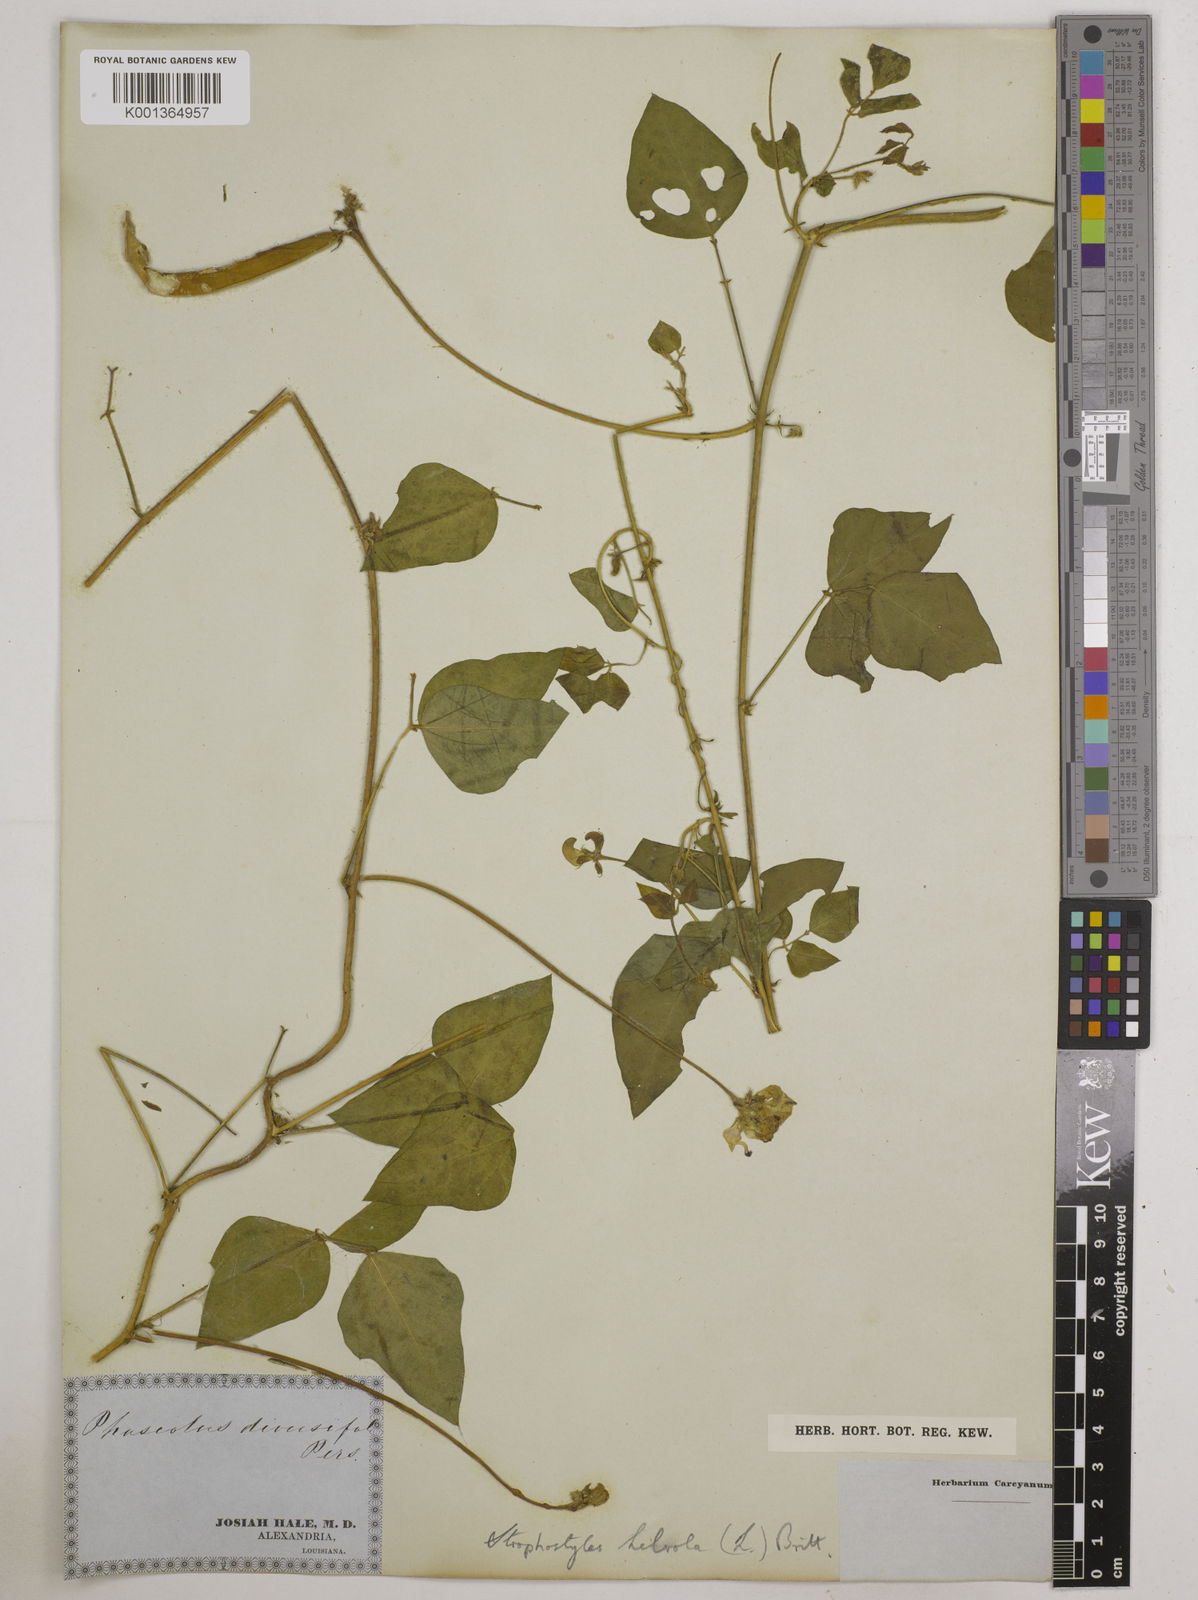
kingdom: Plantae
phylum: Tracheophyta
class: Magnoliopsida
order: Fabales
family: Fabaceae
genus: Strophostyles
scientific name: Strophostyles
